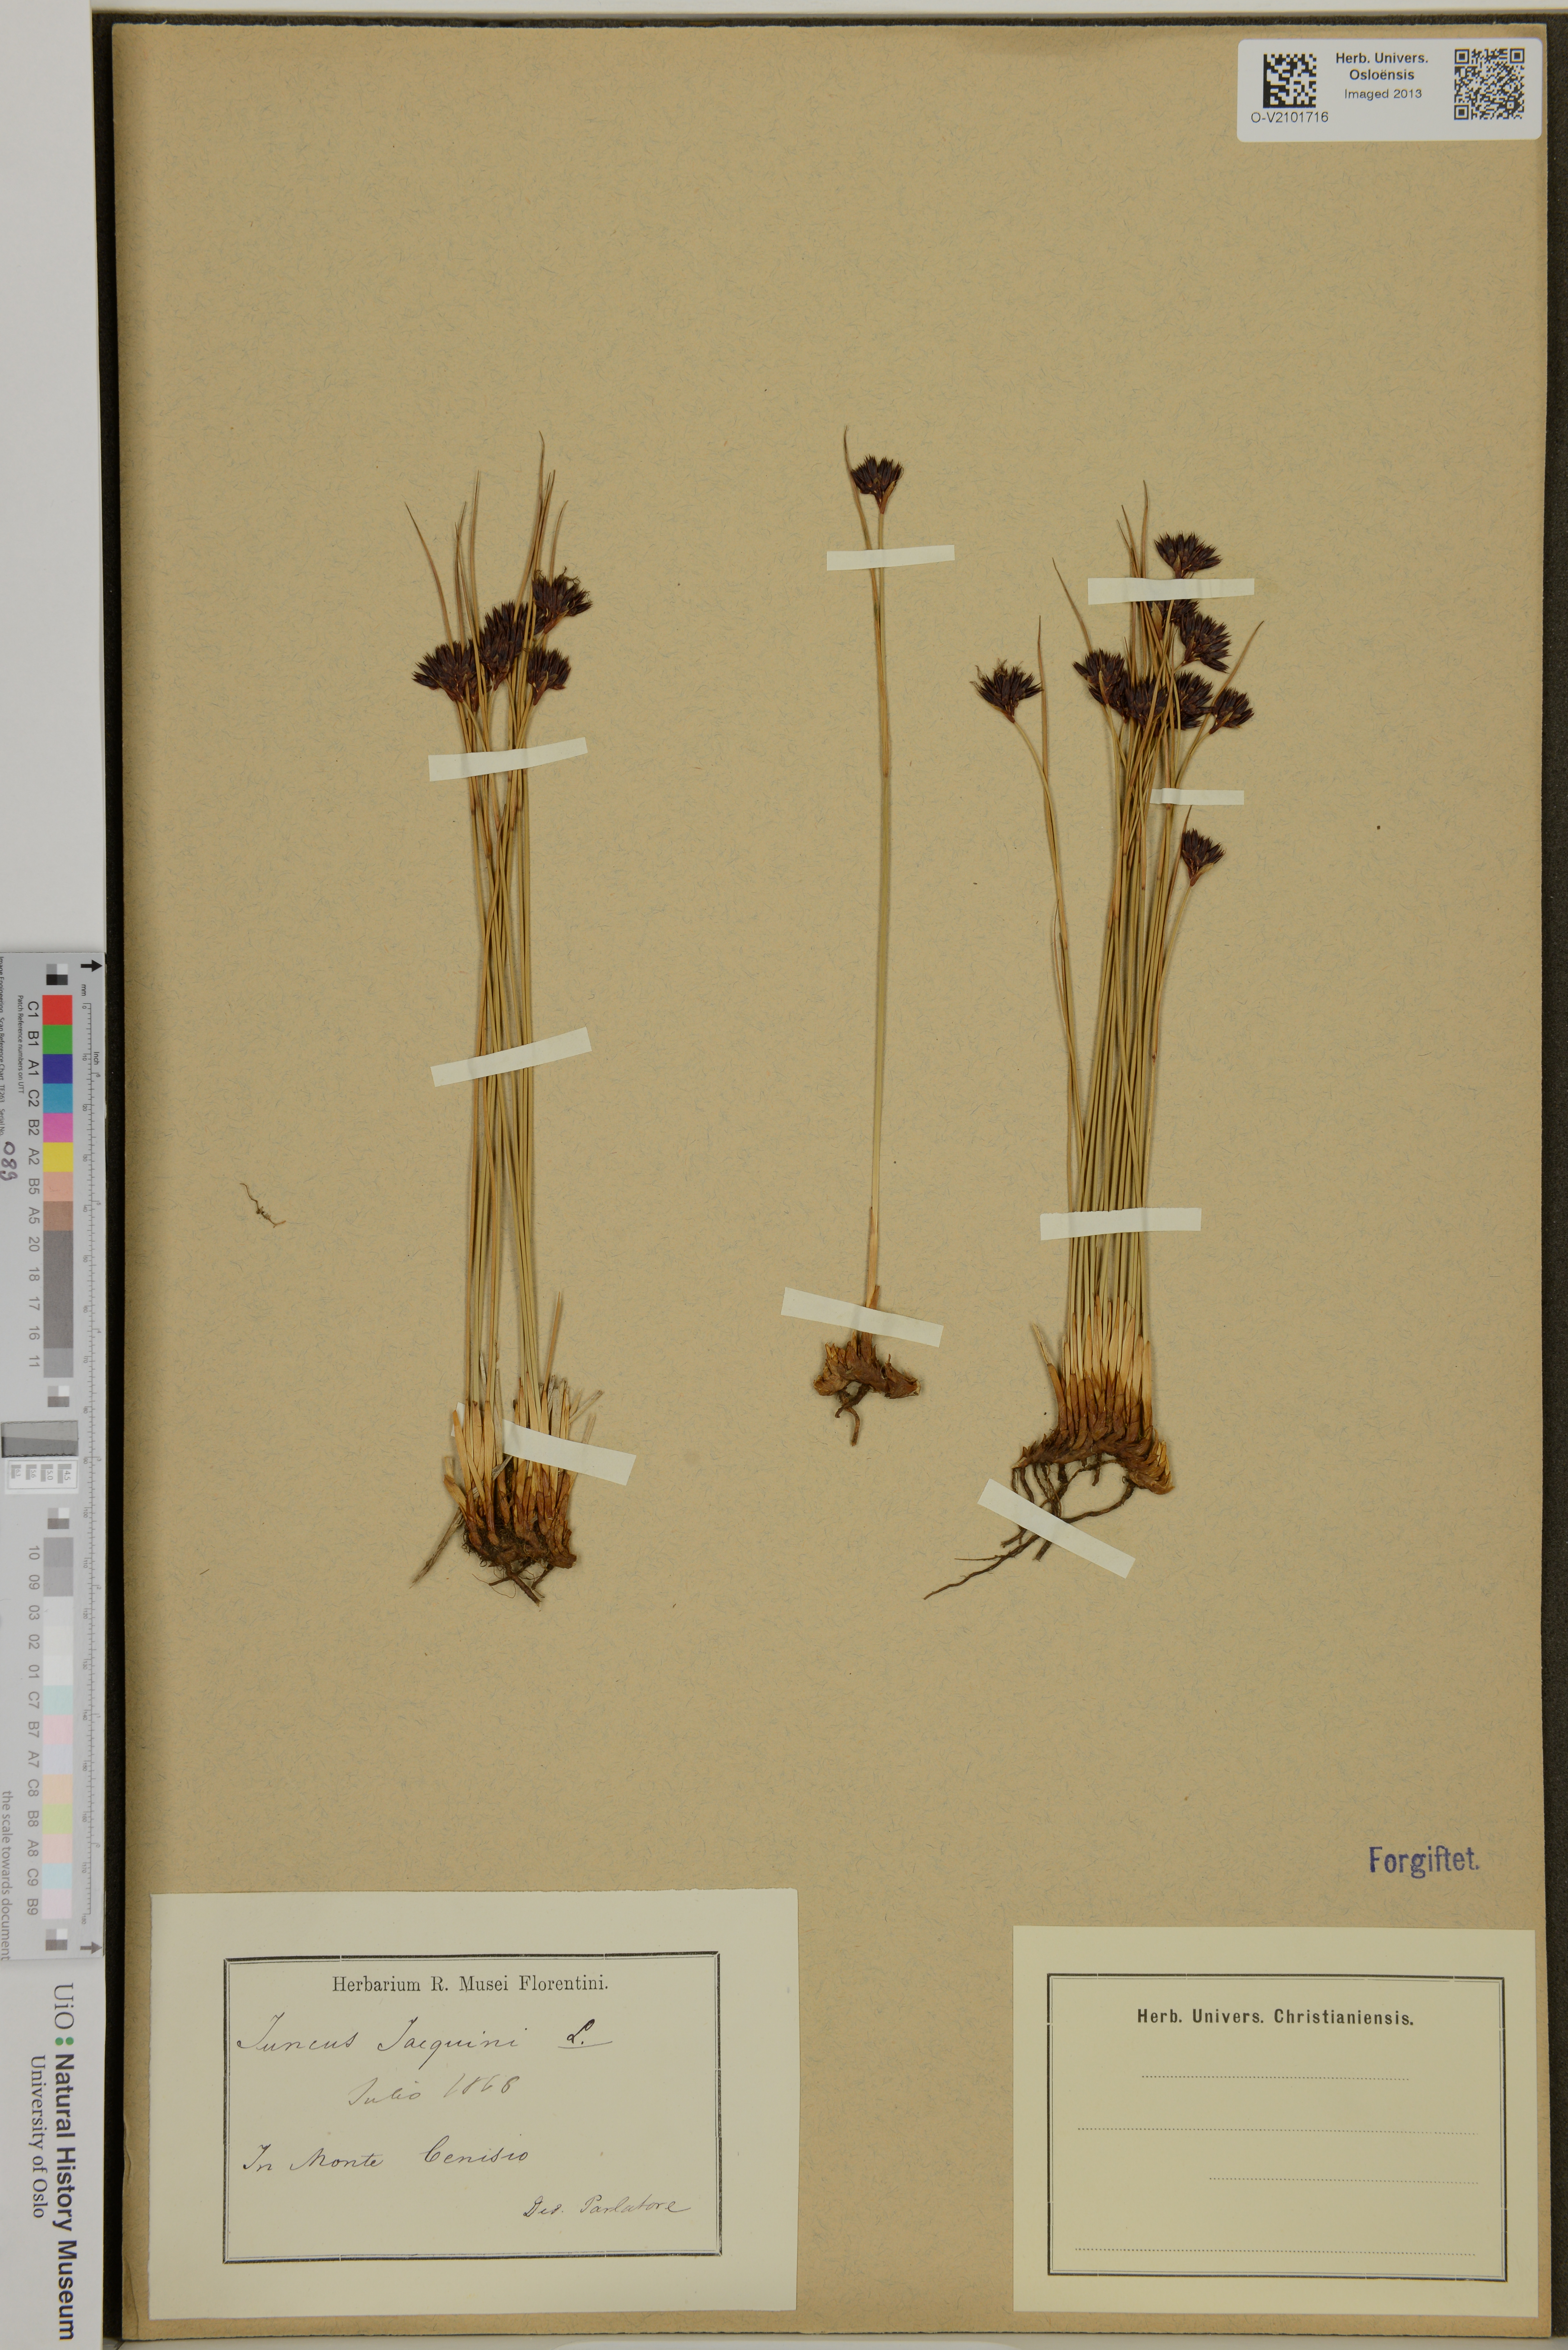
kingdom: Plantae
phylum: Tracheophyta
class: Liliopsida
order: Poales
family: Juncaceae
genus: Juncus
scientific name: Juncus jacquinii
